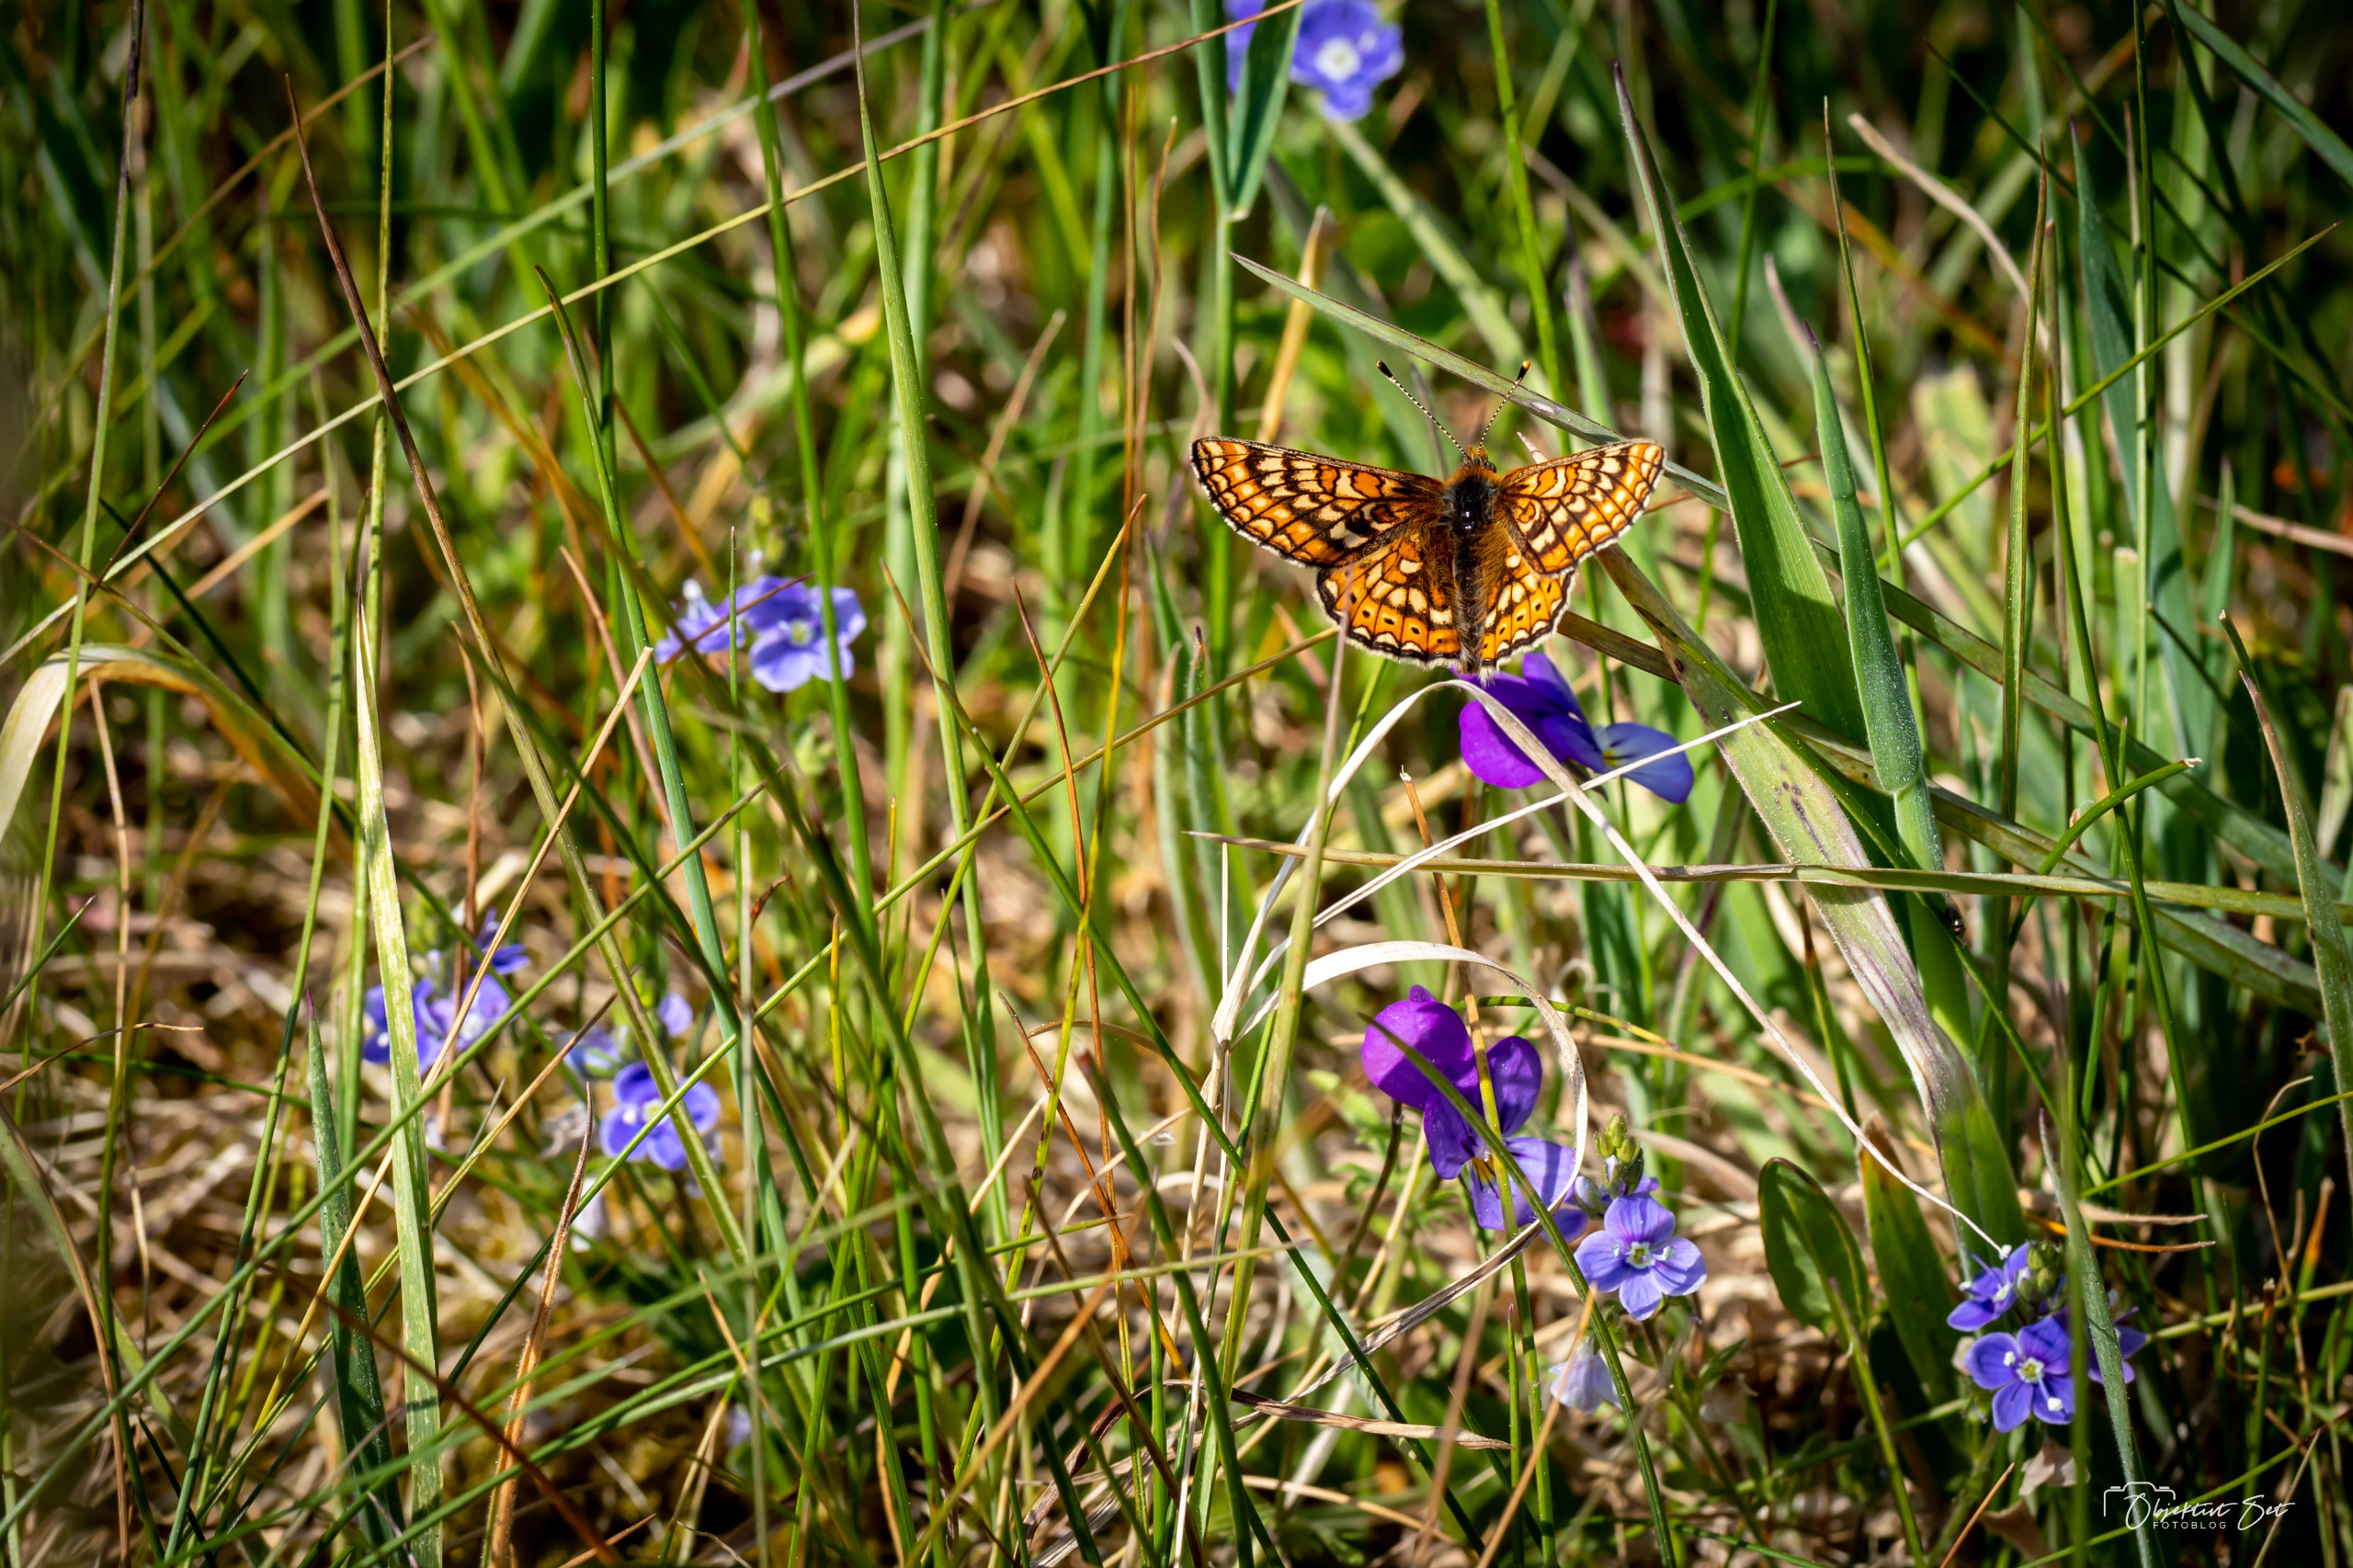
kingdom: Animalia
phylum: Arthropoda
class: Insecta
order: Lepidoptera
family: Nymphalidae
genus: Euphydryas
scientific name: Euphydryas aurinia
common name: Hedepletvinge
